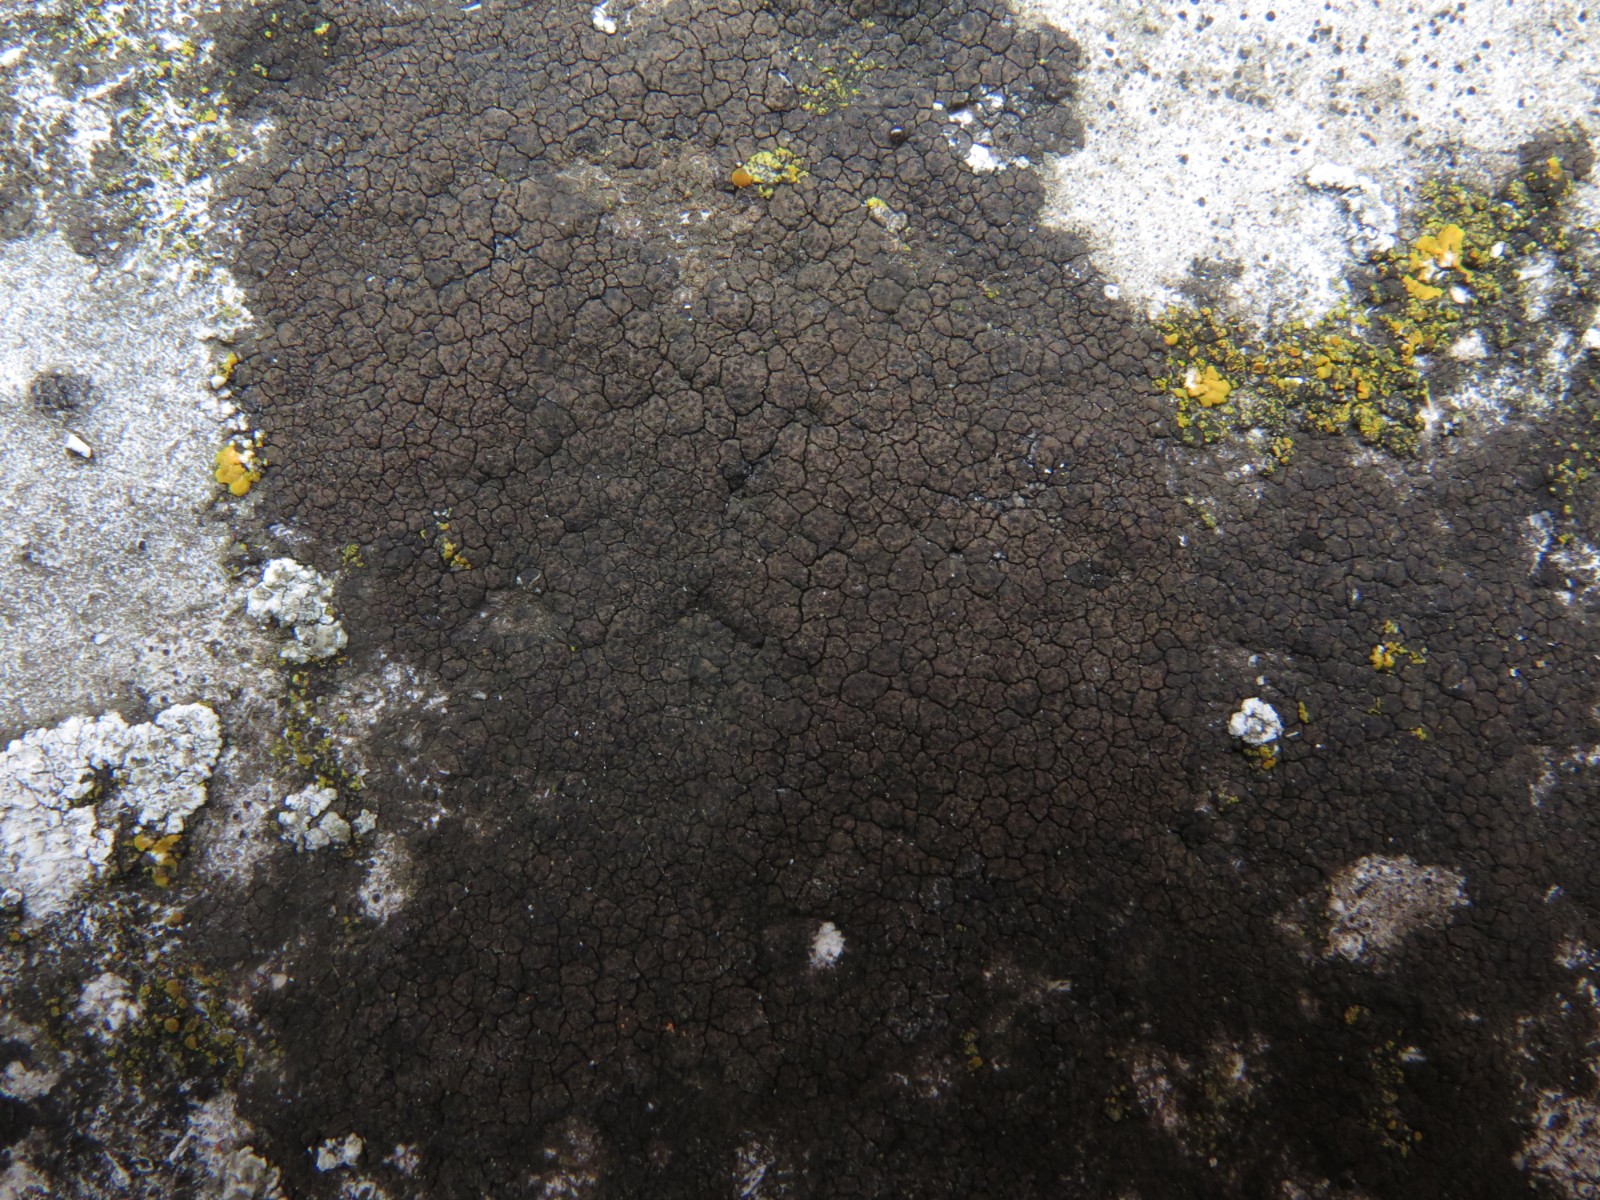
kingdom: Fungi
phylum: Ascomycota
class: Eurotiomycetes
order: Verrucariales
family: Verrucariaceae
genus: Verrucaria
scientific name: Verrucaria nigrescens
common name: sortbrun vortelav
